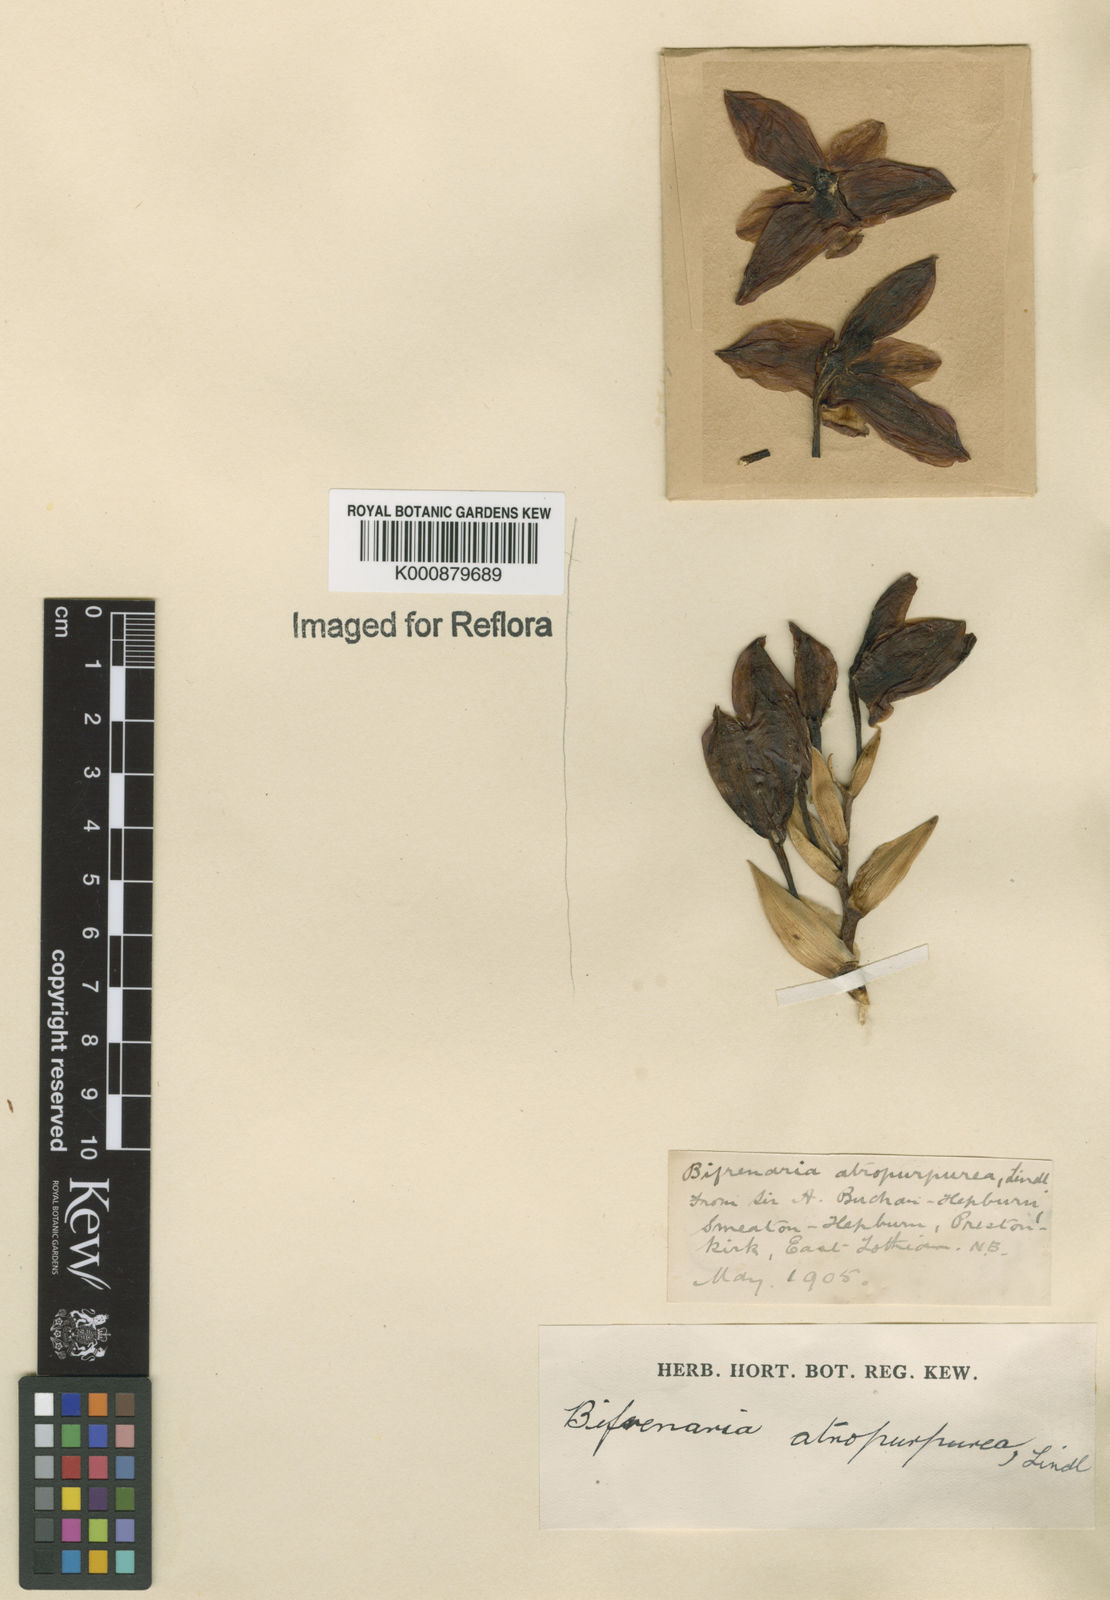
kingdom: Plantae
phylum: Tracheophyta
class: Liliopsida
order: Asparagales
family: Orchidaceae
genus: Bifrenaria
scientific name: Bifrenaria atropurpurea
